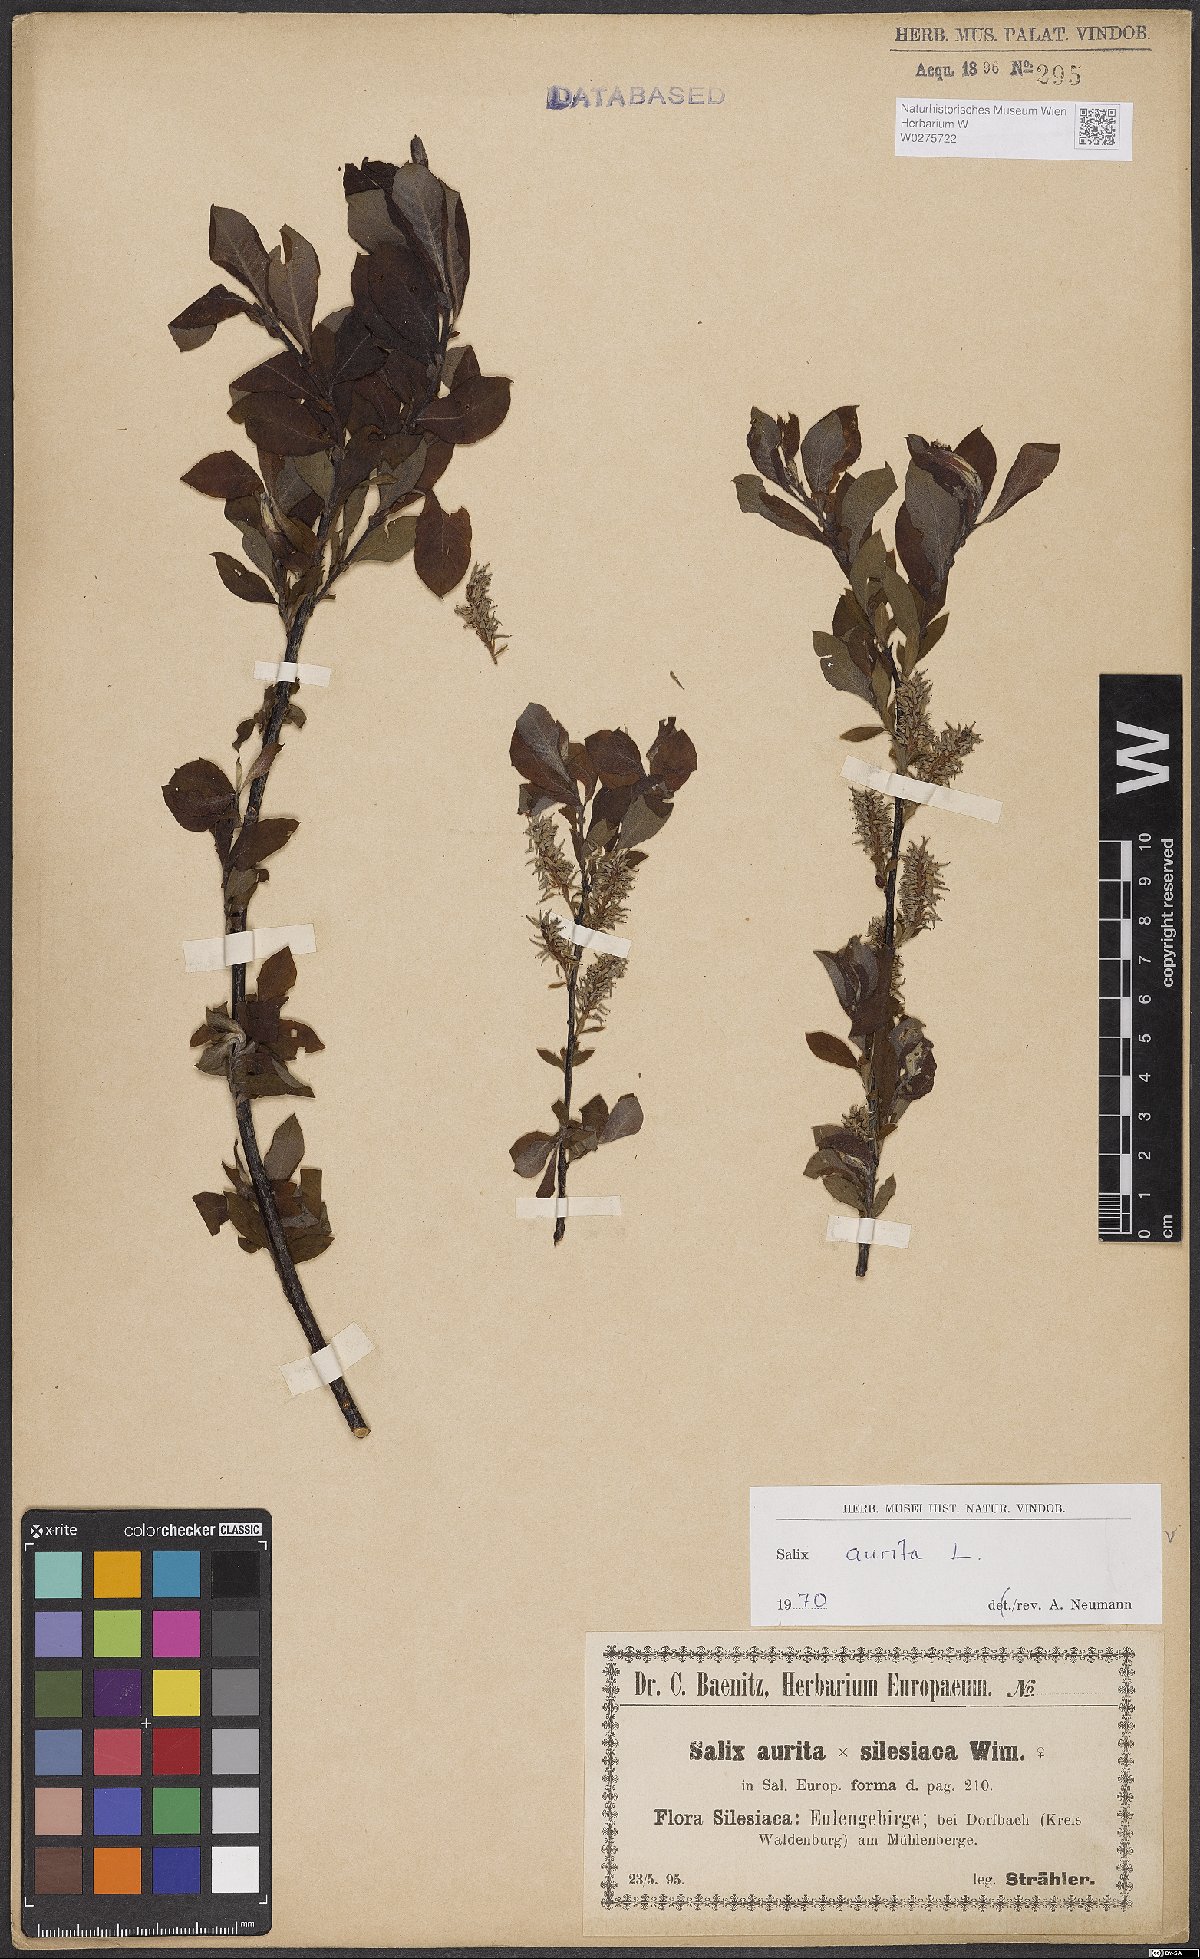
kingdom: Plantae
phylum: Tracheophyta
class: Magnoliopsida
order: Malpighiales
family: Salicaceae
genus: Salix
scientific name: Salix aurita
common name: Eared willow
